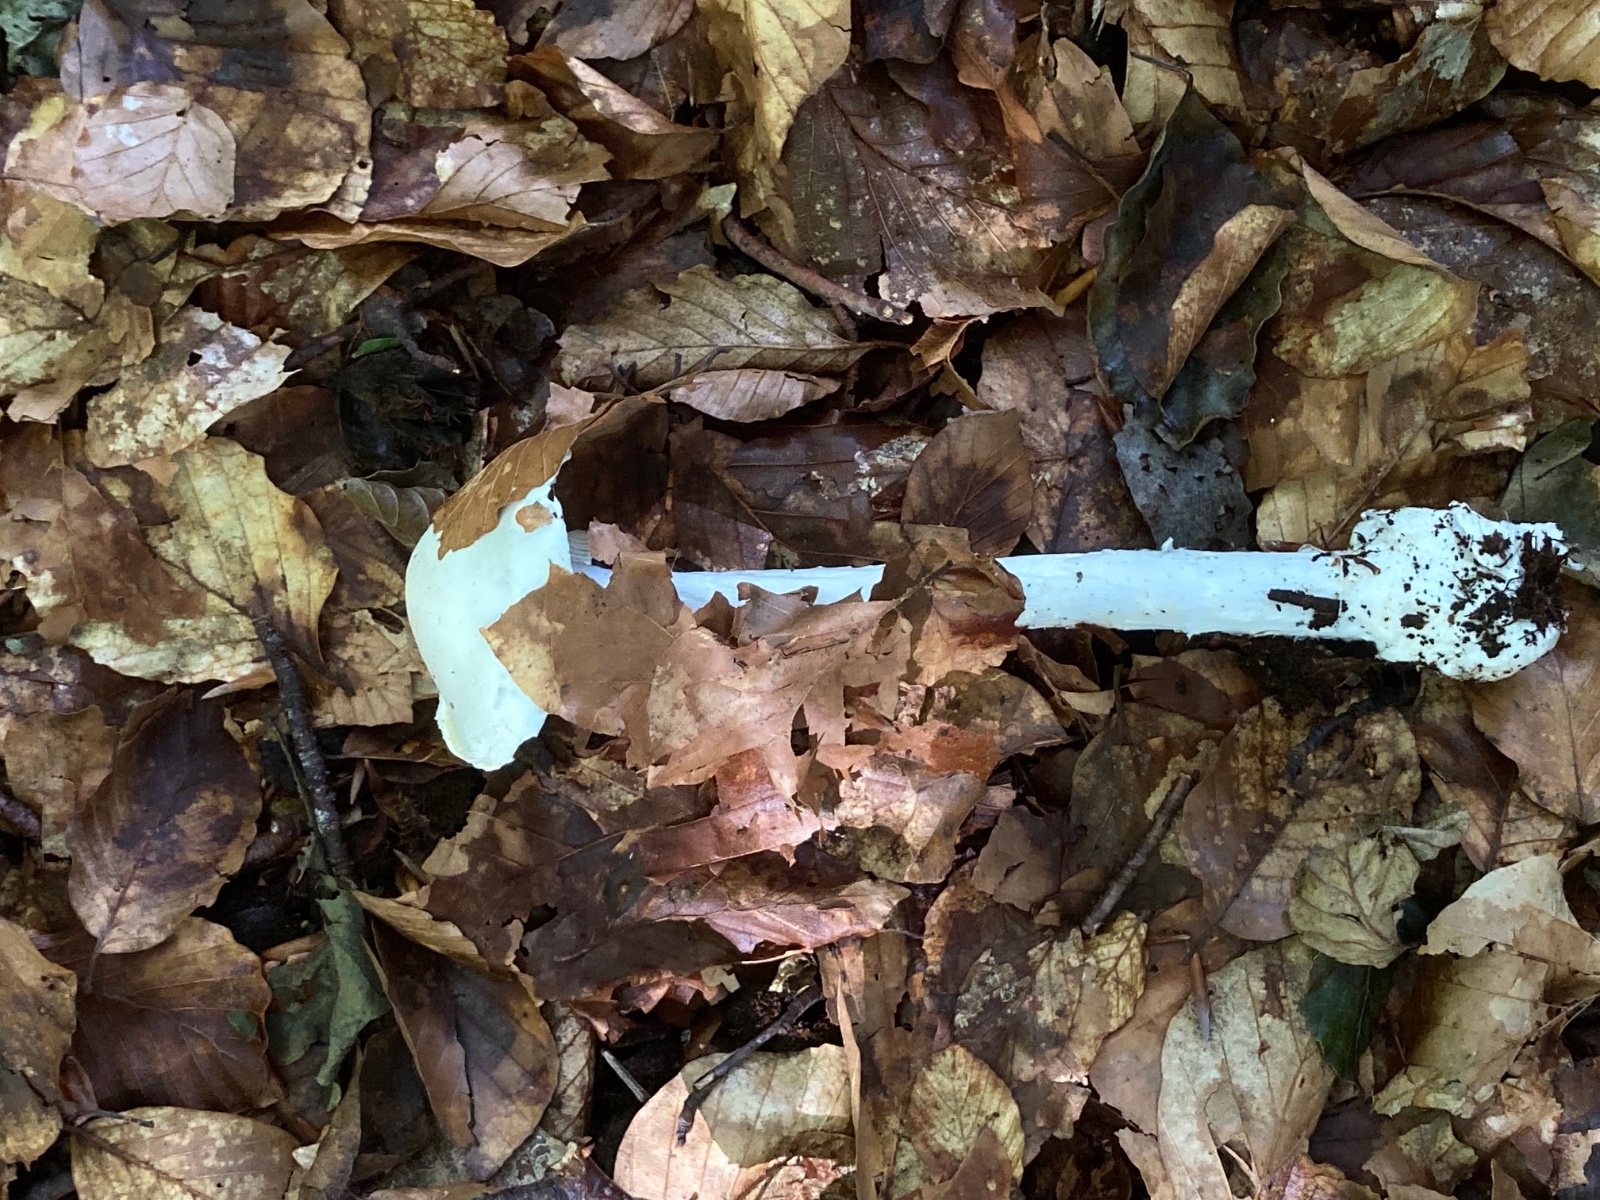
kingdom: Fungi
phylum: Basidiomycota
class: Agaricomycetes
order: Agaricales
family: Amanitaceae
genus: Amanita
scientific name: Amanita virosa
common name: snehvid fluesvamp
